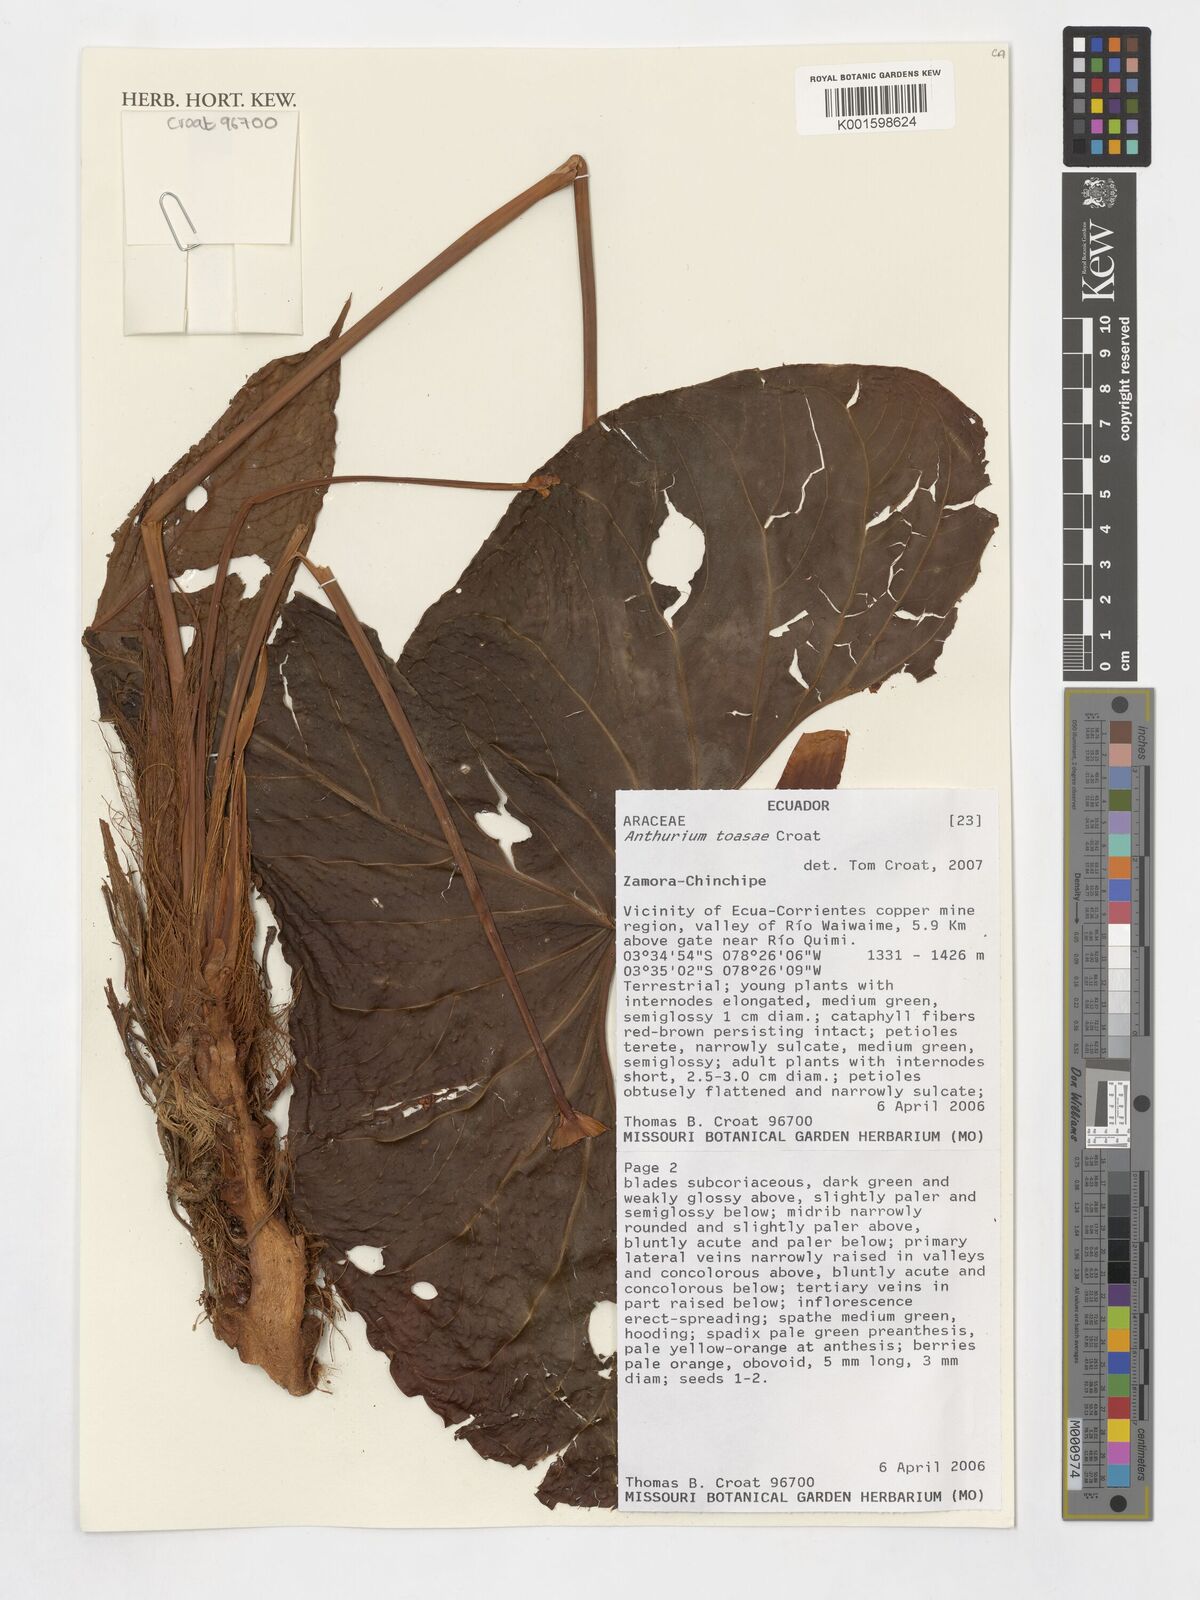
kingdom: Plantae
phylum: Tracheophyta
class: Liliopsida
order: Alismatales
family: Araceae
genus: Anthurium
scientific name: Anthurium
